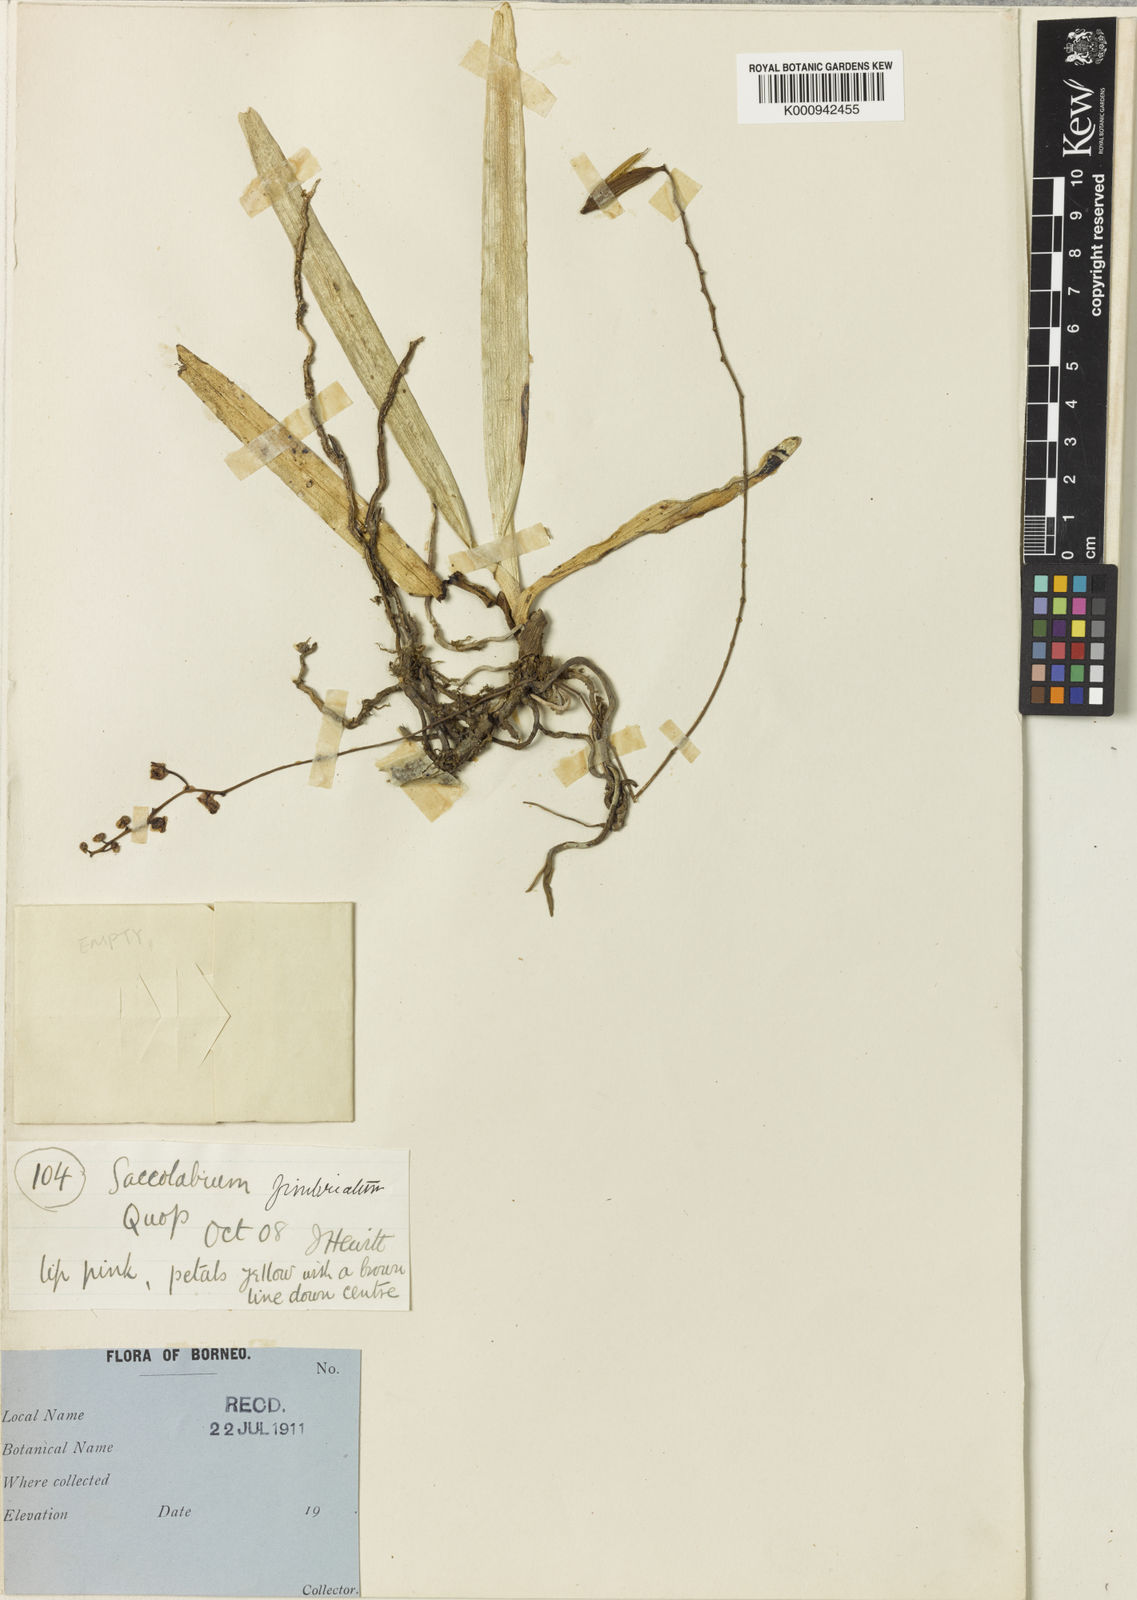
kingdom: Plantae
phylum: Tracheophyta
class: Liliopsida
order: Asparagales
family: Orchidaceae
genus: Sarcoglyphis
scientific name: Sarcoglyphis fimbriata
